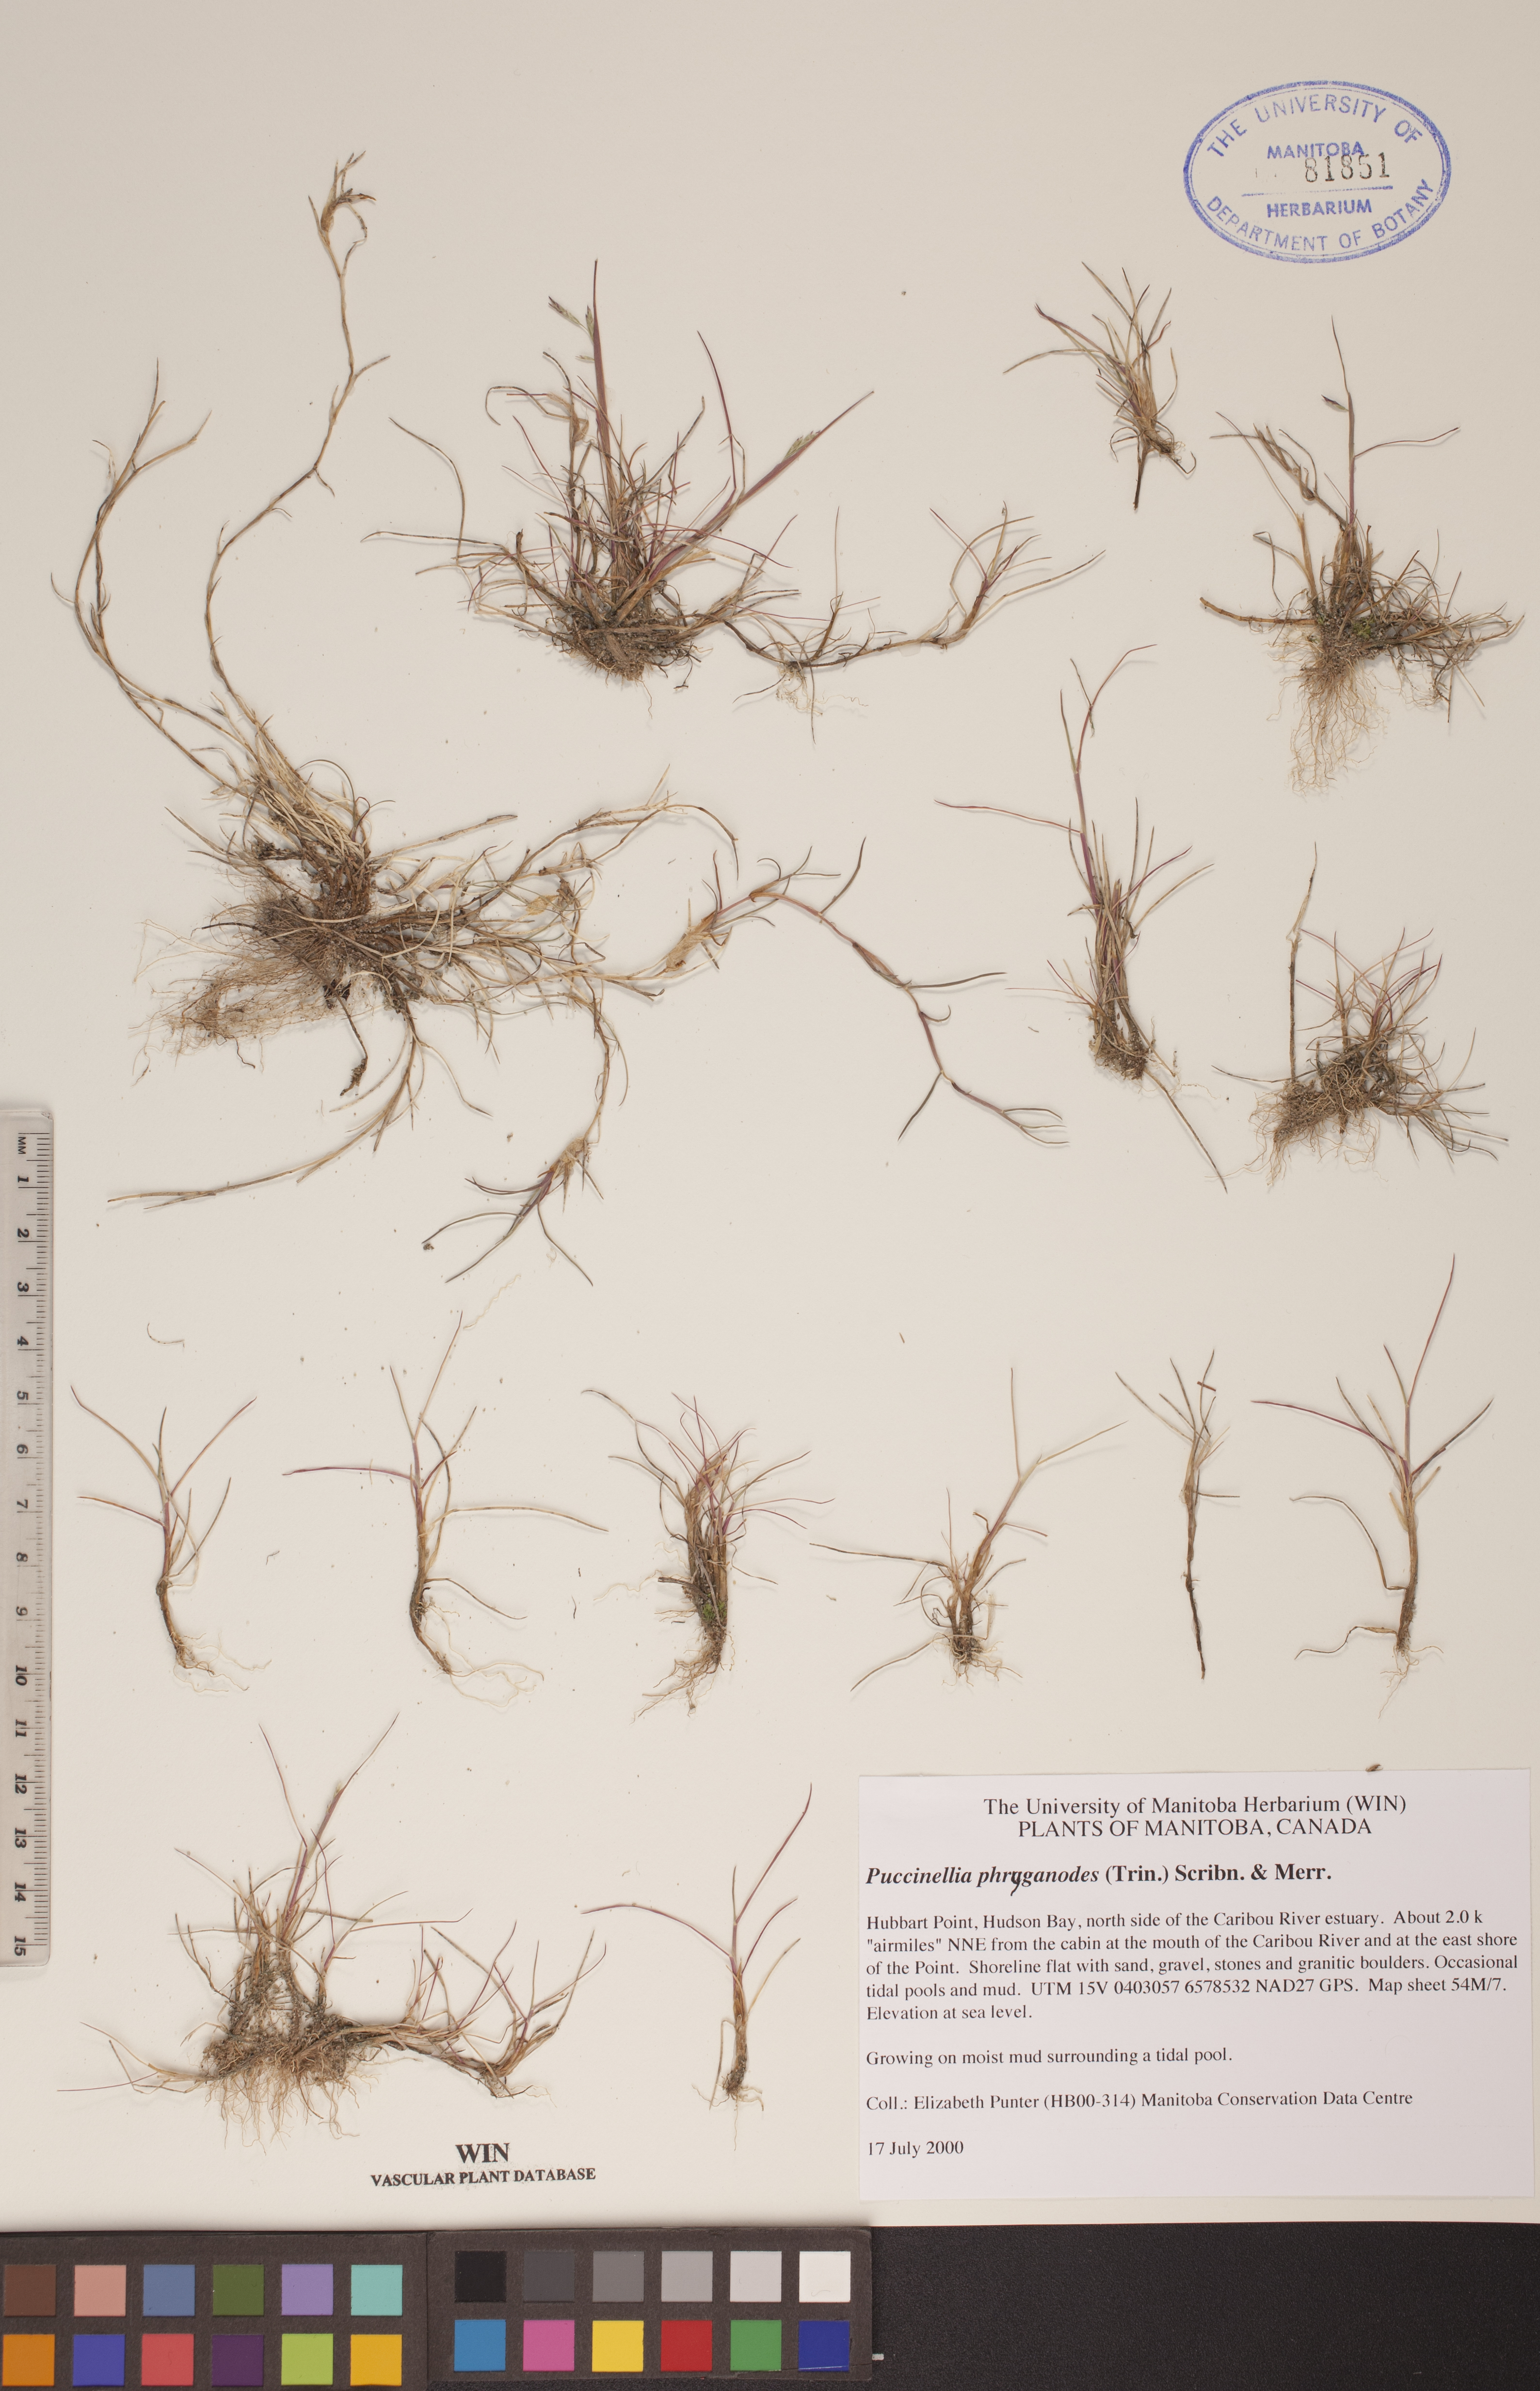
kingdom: Plantae
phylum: Tracheophyta
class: Liliopsida
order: Poales
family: Poaceae
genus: Puccinellia
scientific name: Puccinellia phryganodes
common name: Creeping alkaligrass
